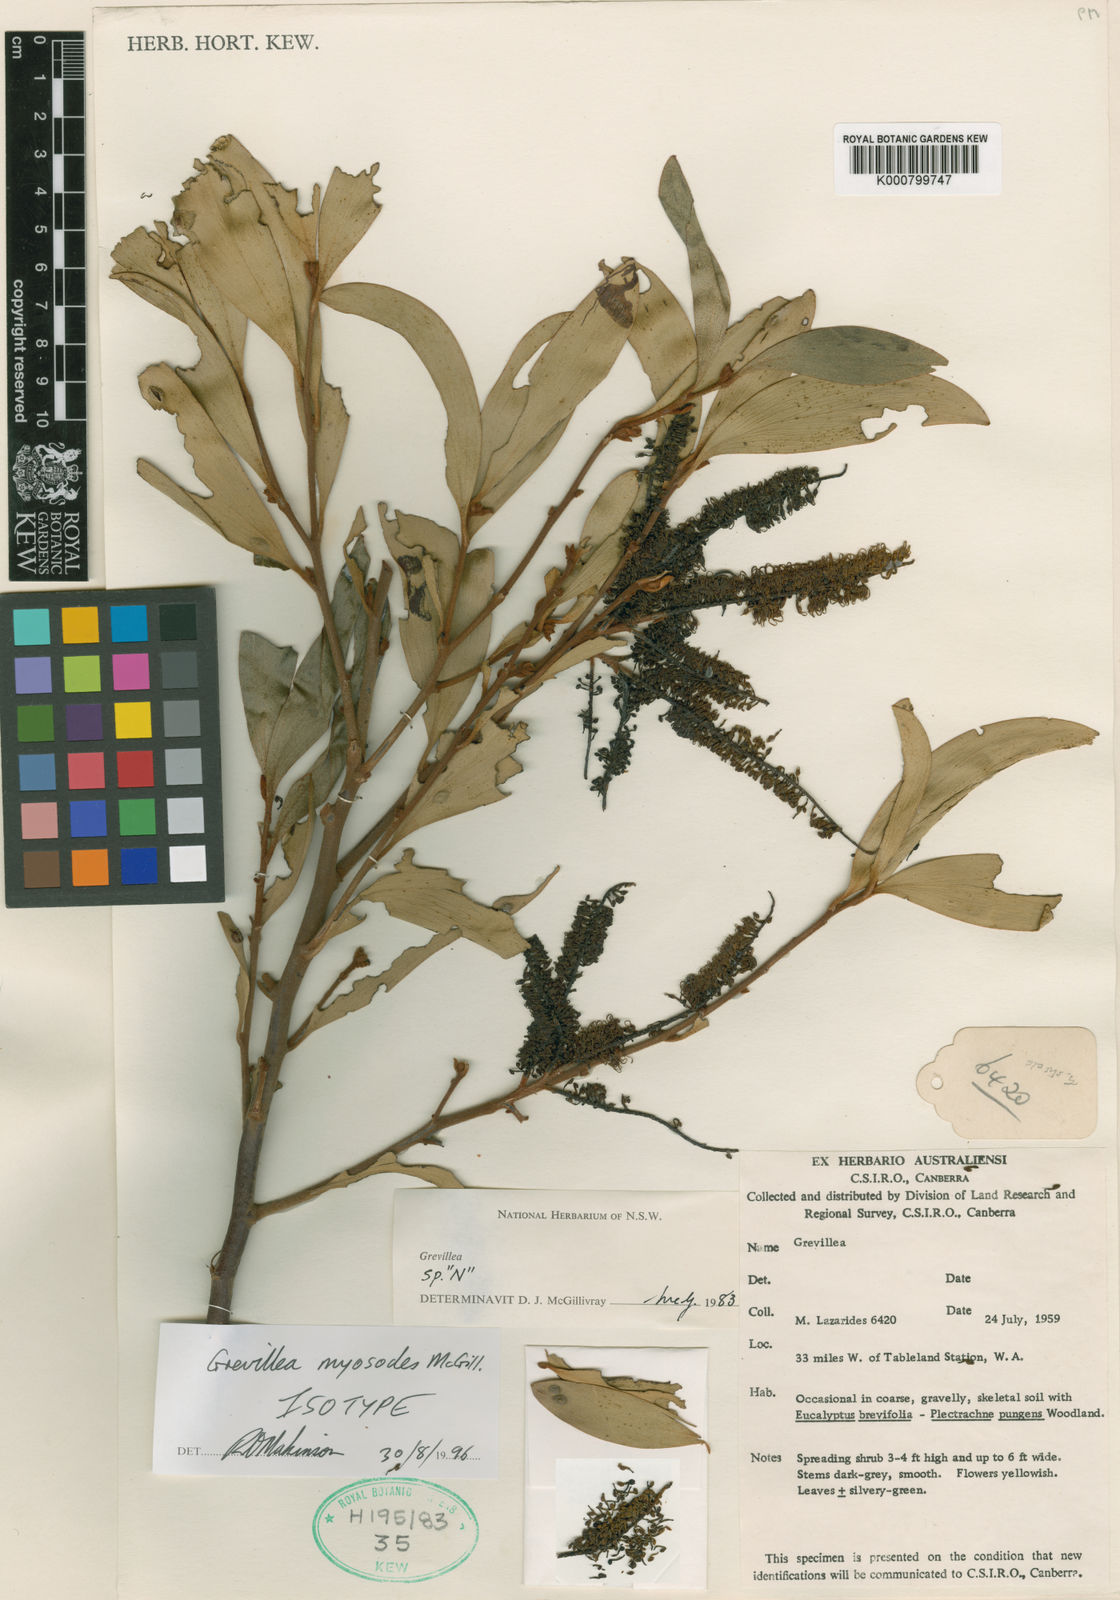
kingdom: Plantae
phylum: Tracheophyta
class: Magnoliopsida
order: Proteales
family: Proteaceae
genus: Grevillea
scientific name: Grevillea myosodes
